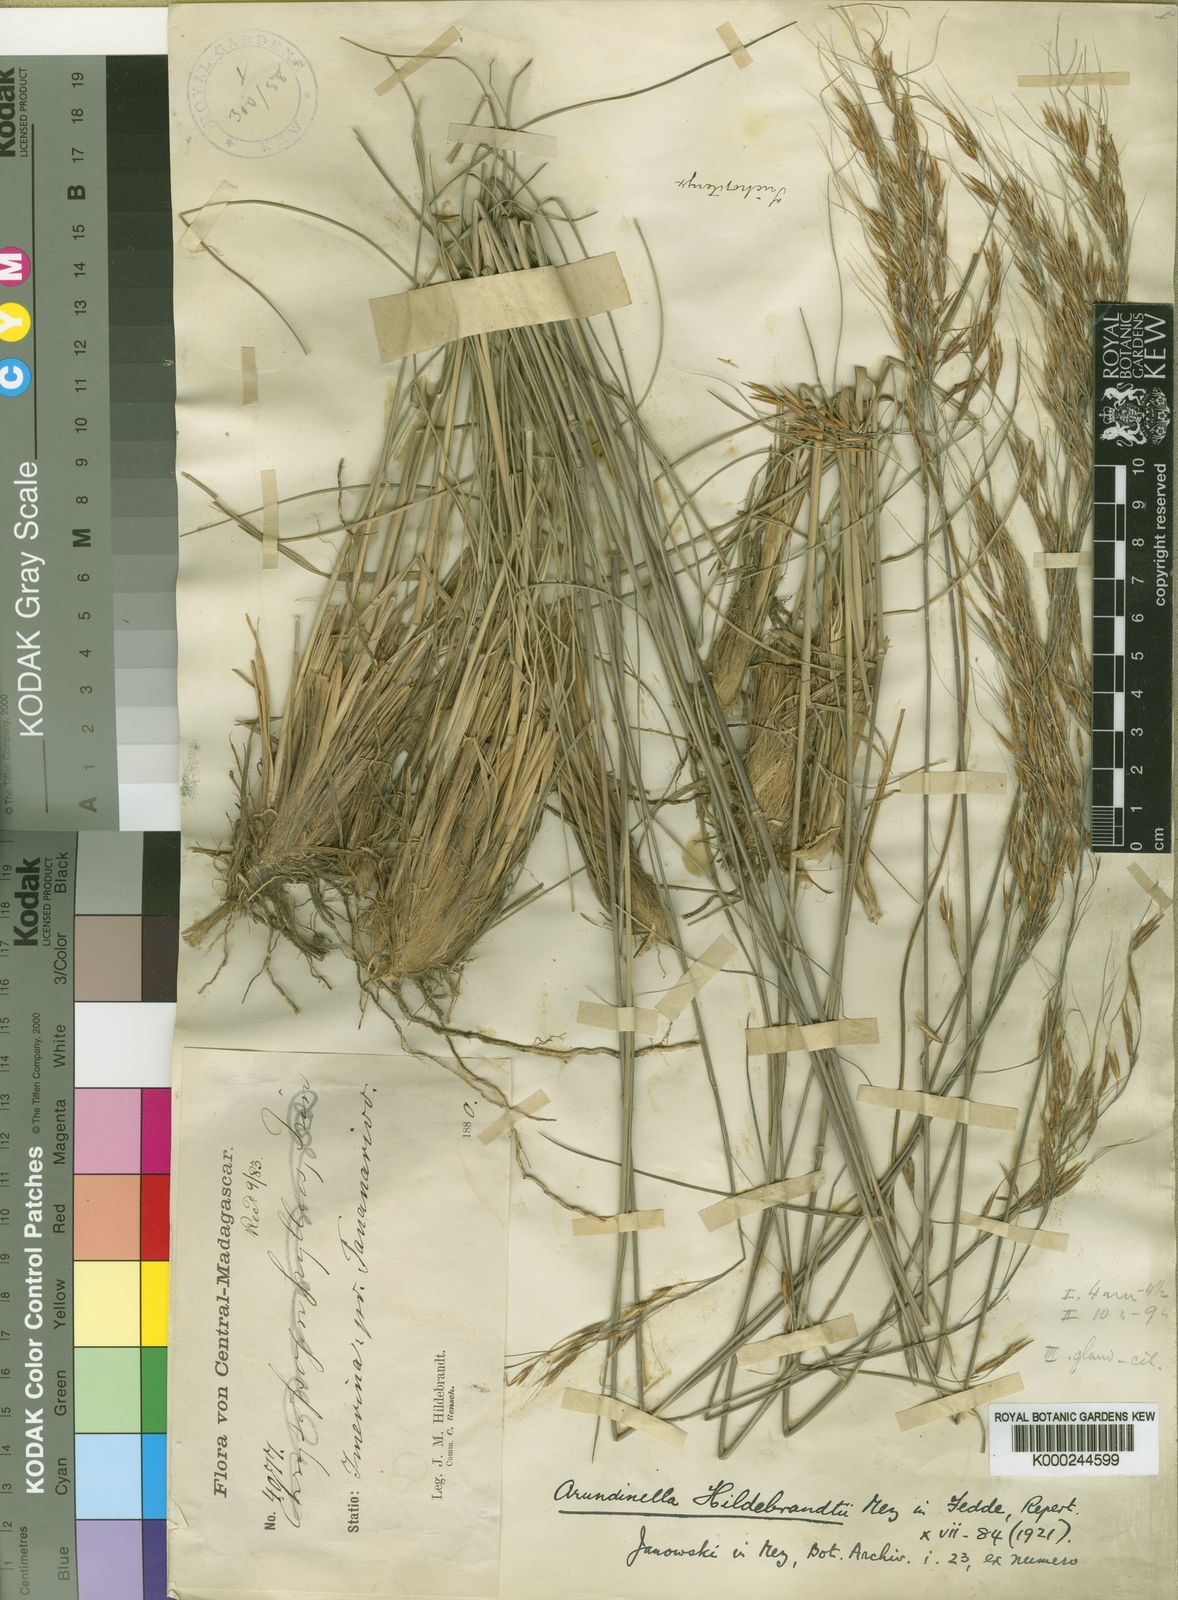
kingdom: Plantae
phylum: Tracheophyta
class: Liliopsida
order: Poales
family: Poaceae
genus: Loudetia
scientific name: Loudetia simplex
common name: Common russet grass
